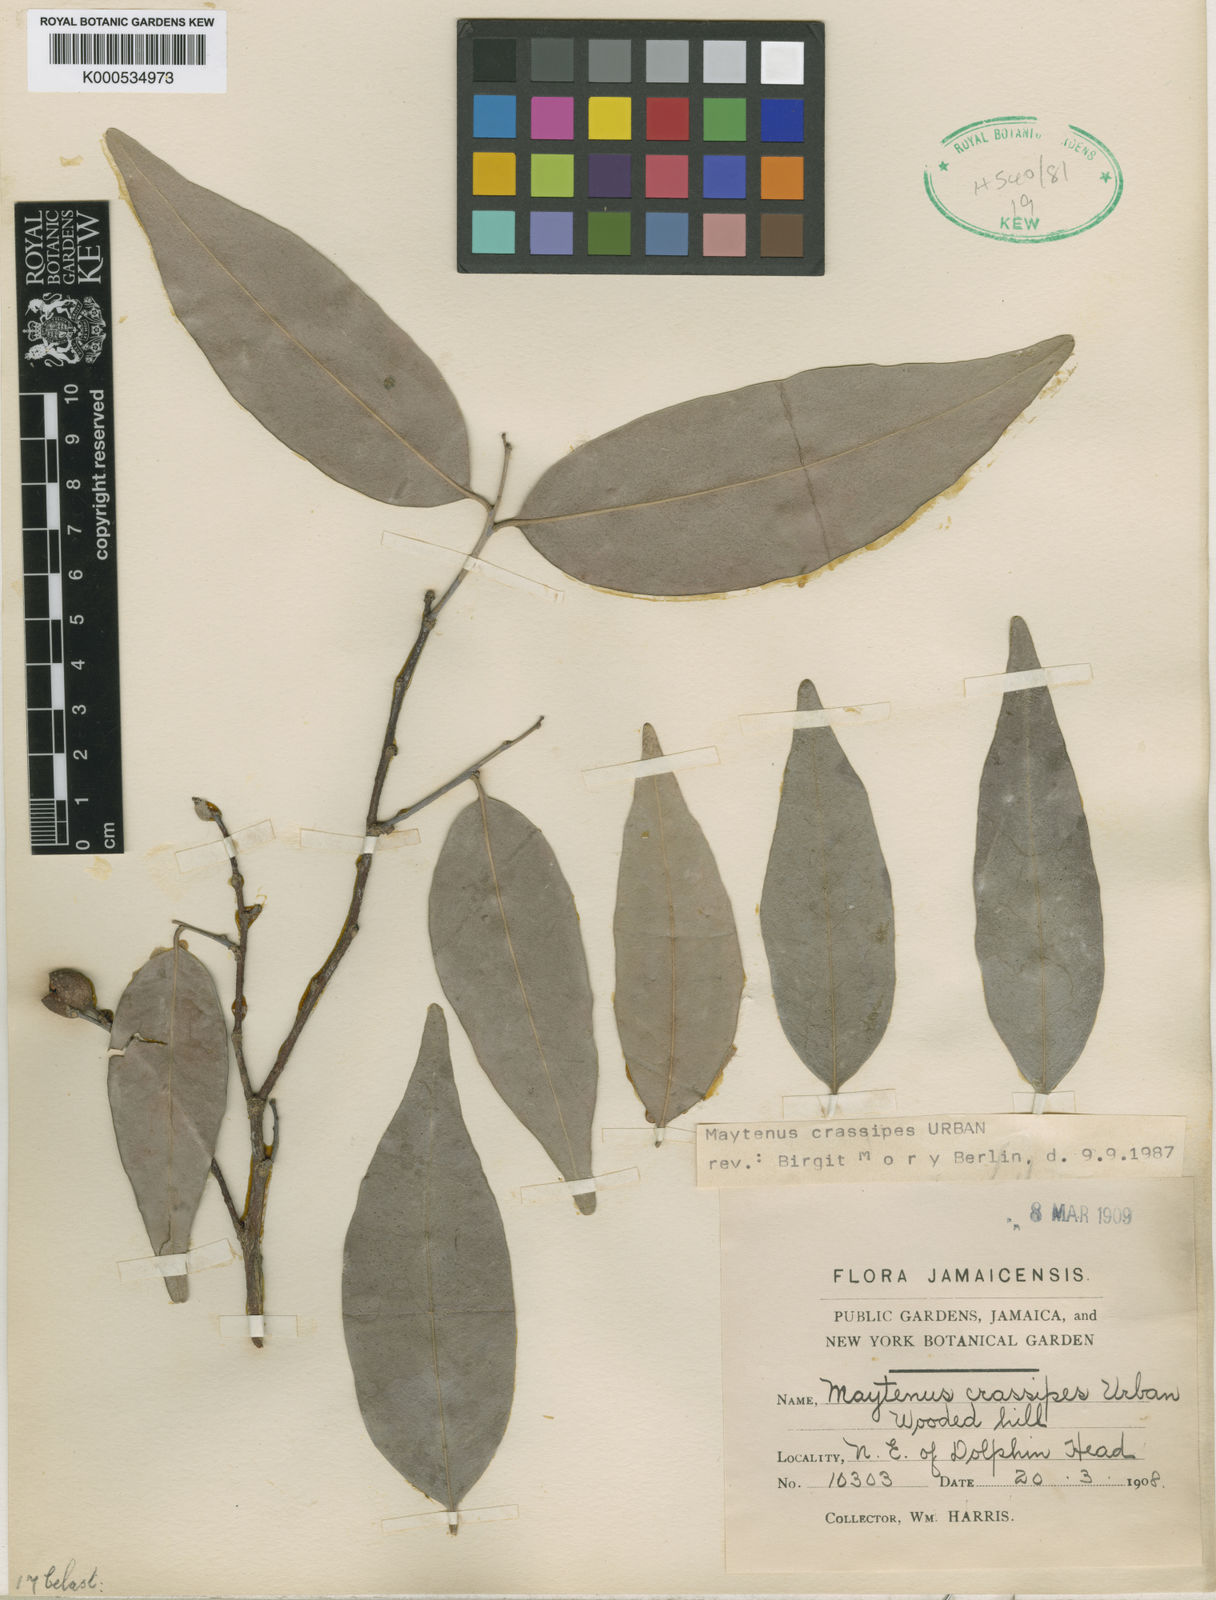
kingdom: Plantae
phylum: Tracheophyta
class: Magnoliopsida
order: Celastrales
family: Celastraceae
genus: Monteverdia
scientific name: Monteverdia crassipes
